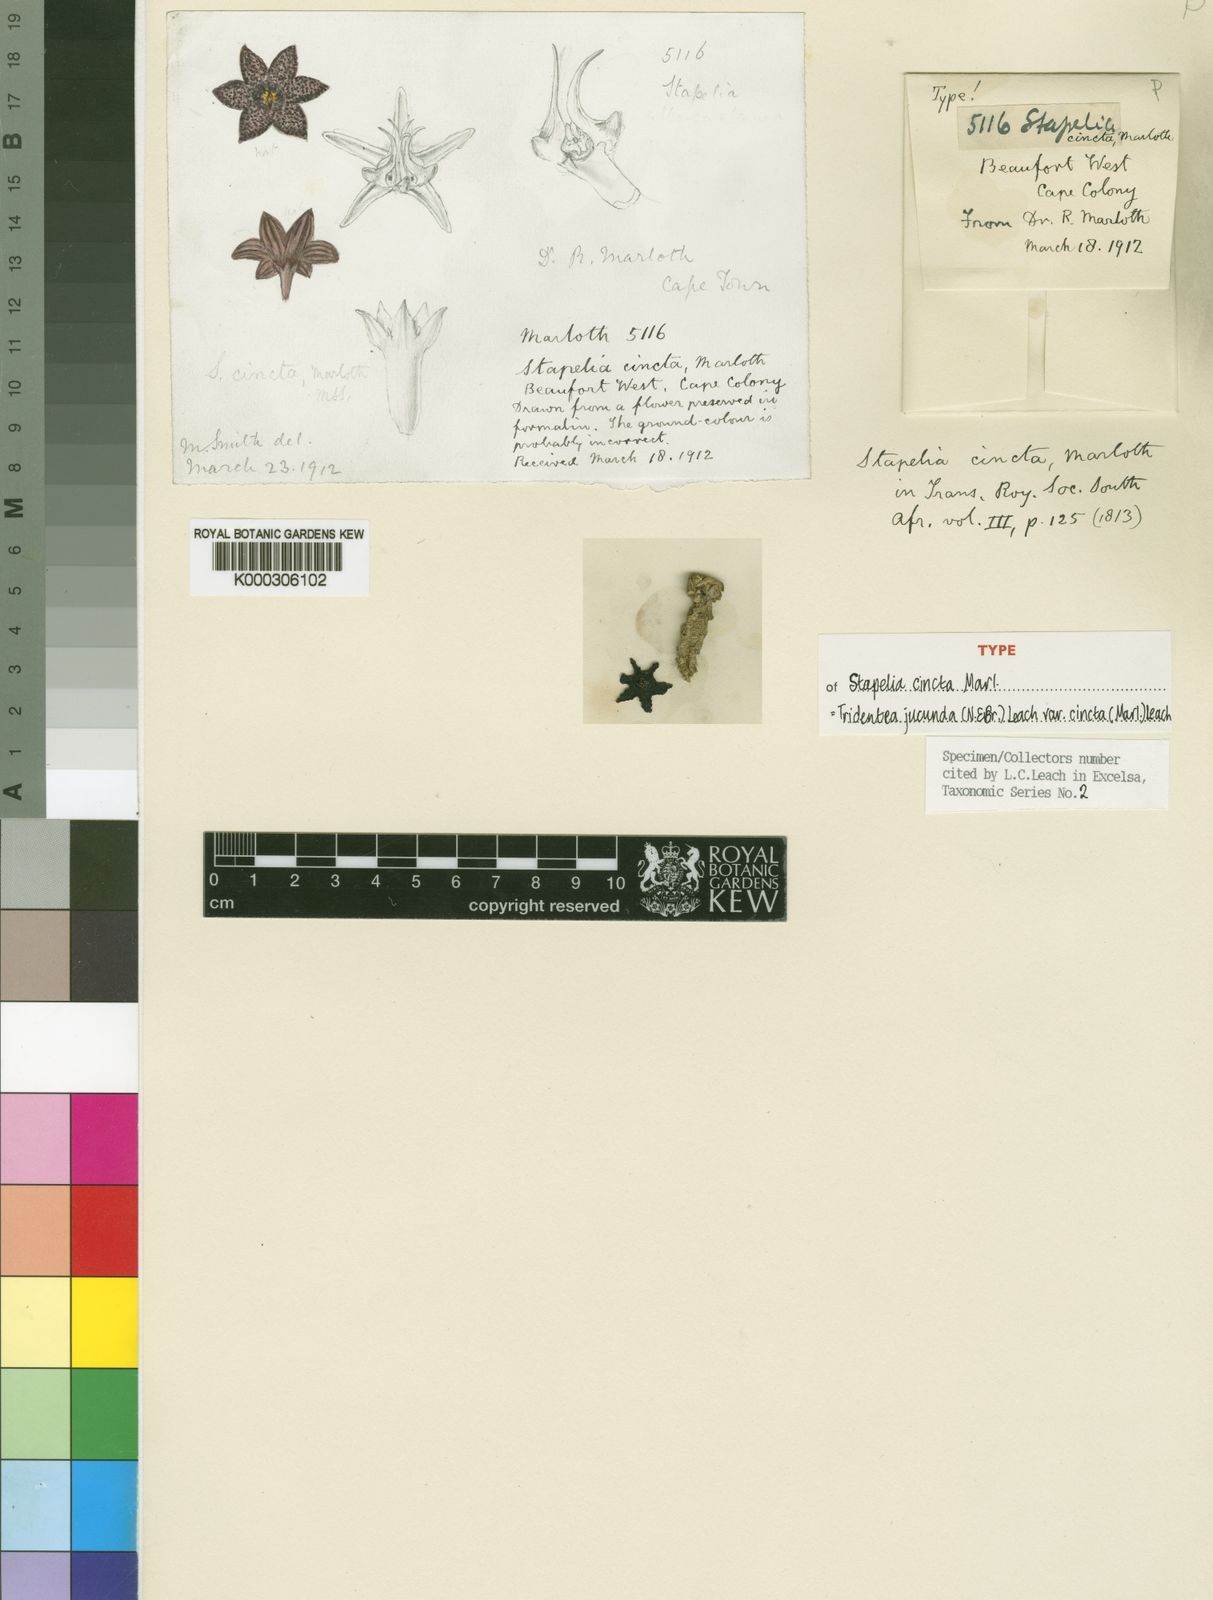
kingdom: Plantae
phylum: Tracheophyta
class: Magnoliopsida
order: Gentianales
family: Apocynaceae
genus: Ceropegia
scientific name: Ceropegia ausana
